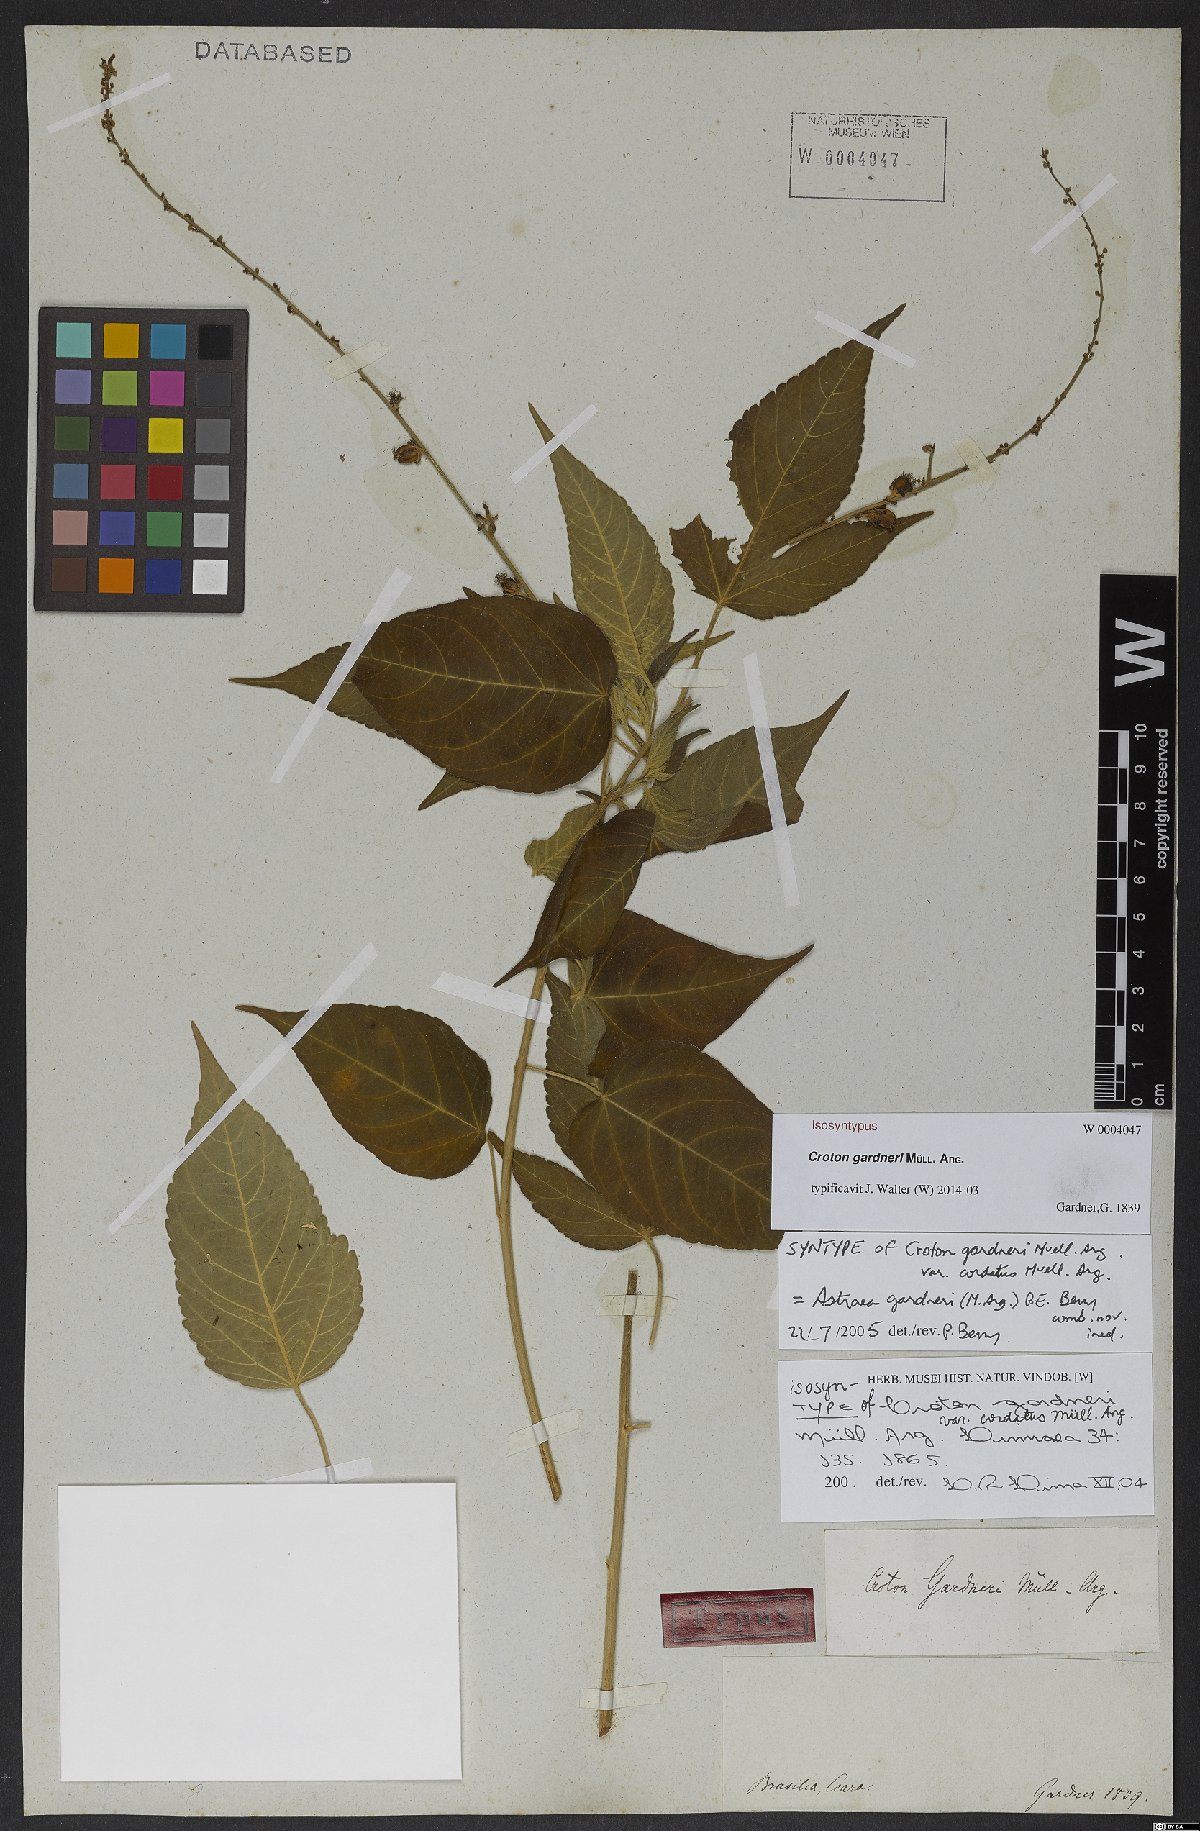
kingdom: Plantae
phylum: Tracheophyta
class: Magnoliopsida
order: Malpighiales
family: Euphorbiaceae
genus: Astraea
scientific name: Astraea paulina
